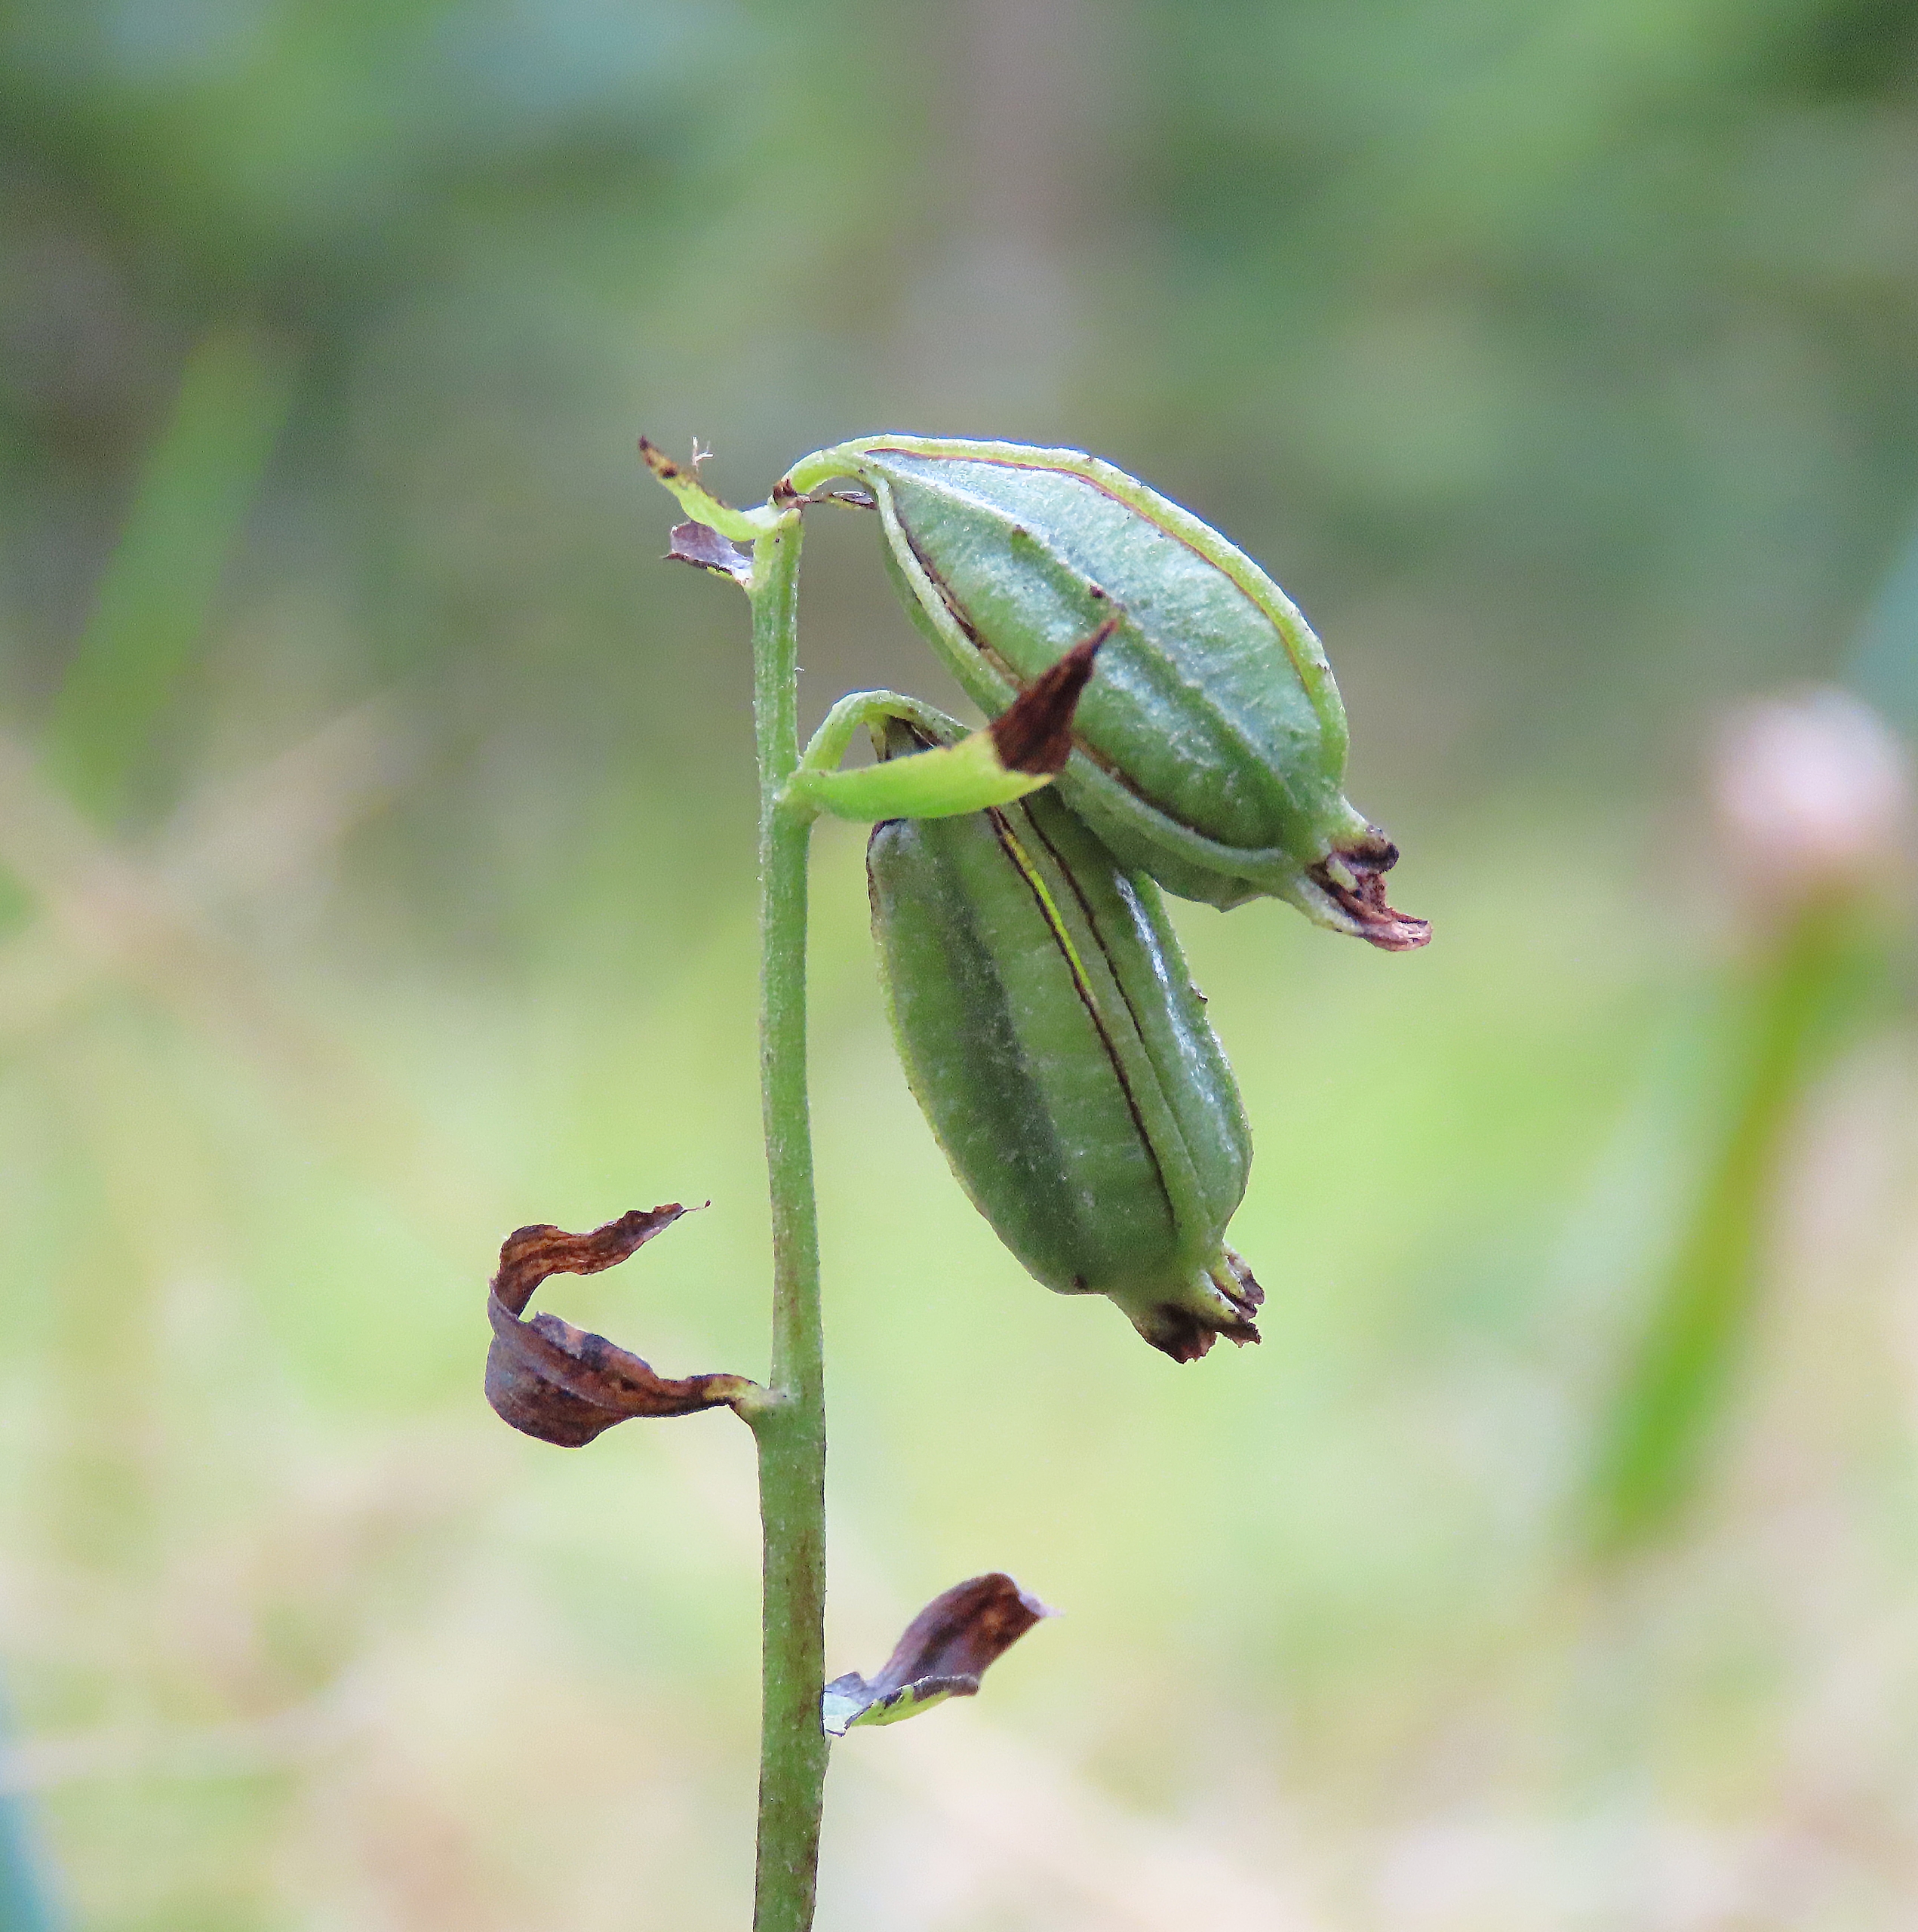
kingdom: Plantae
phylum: Tracheophyta
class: Liliopsida
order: Asparagales
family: Orchidaceae
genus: Epipactis
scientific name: Epipactis phyllanthes
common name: Nikkende hullæbe
